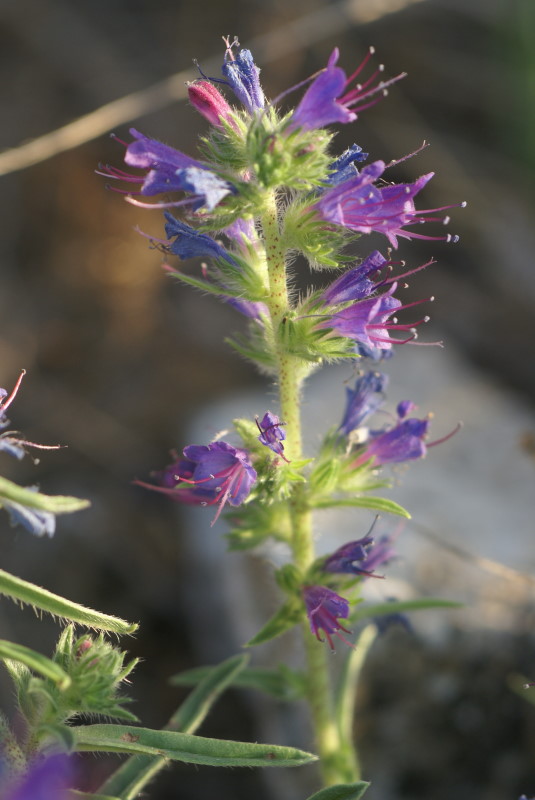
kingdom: Plantae
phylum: Tracheophyta
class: Magnoliopsida
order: Boraginales
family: Boraginaceae
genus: Echium
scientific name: Echium vulgare
